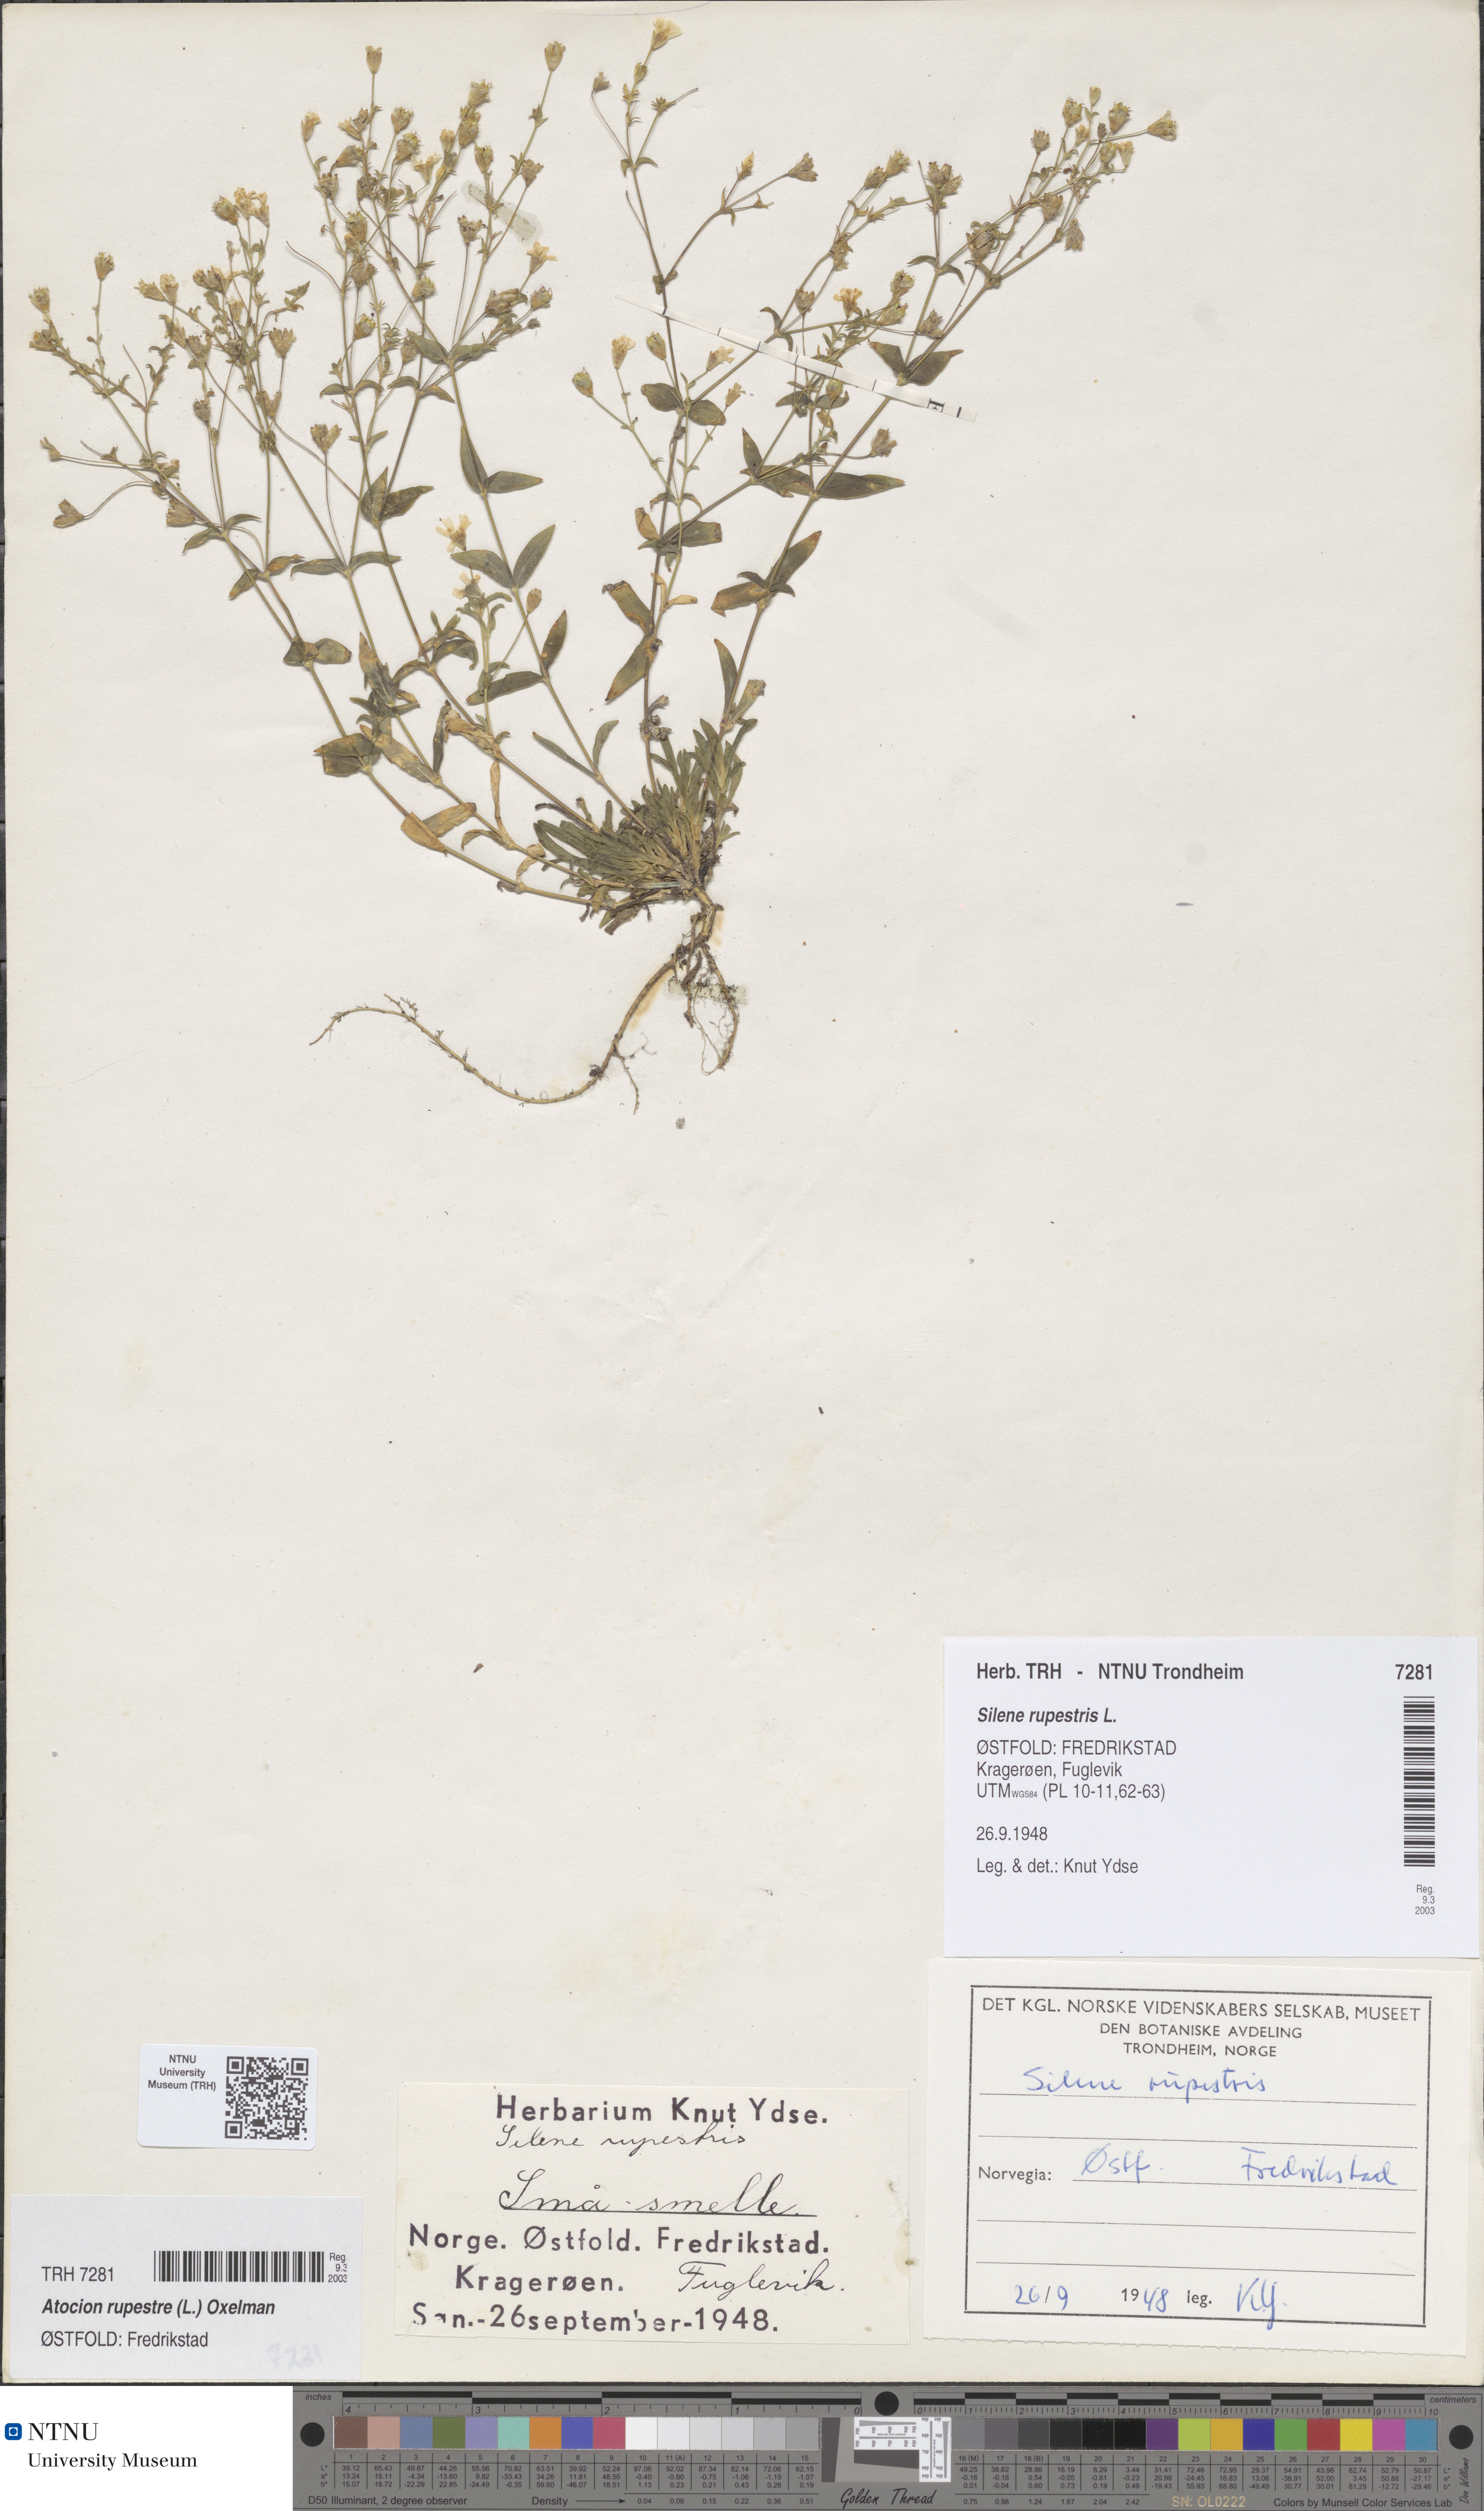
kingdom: Plantae
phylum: Tracheophyta
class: Magnoliopsida
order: Caryophyllales
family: Caryophyllaceae
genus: Atocion
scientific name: Atocion rupestre
